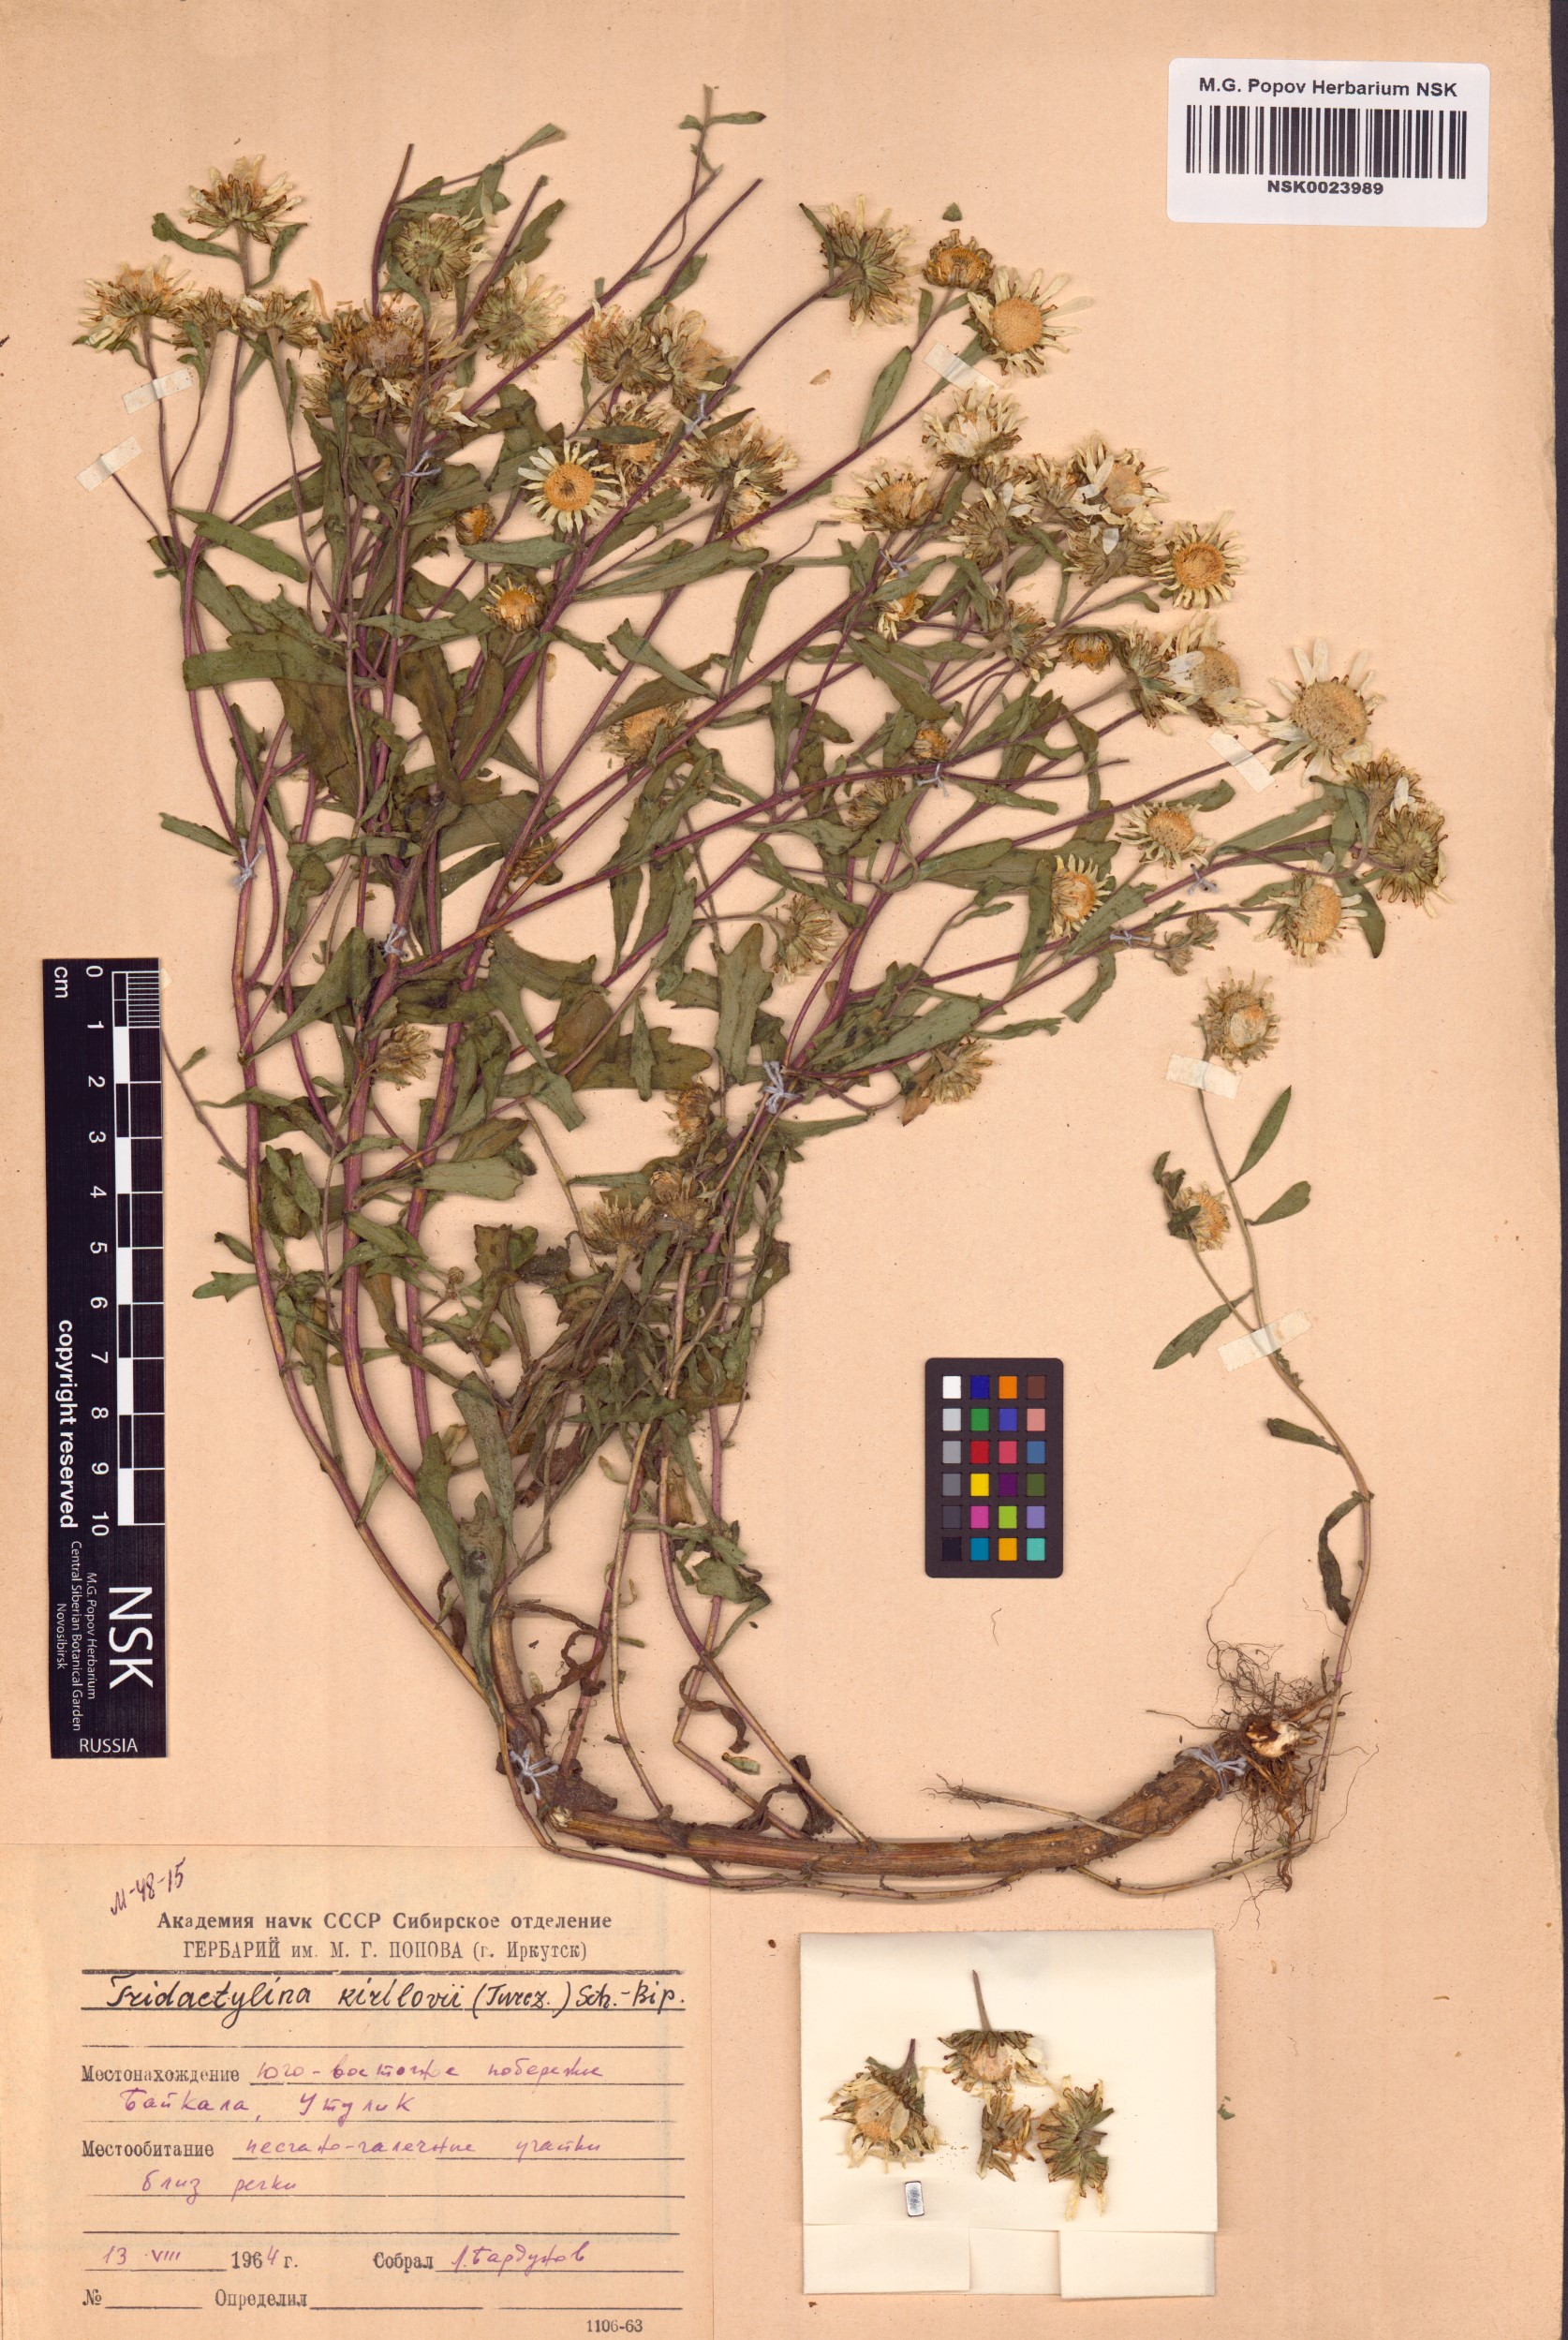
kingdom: Plantae
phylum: Tracheophyta
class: Magnoliopsida
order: Asterales
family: Asteraceae
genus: Tridactylina
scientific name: Tridactylina kirilowii
